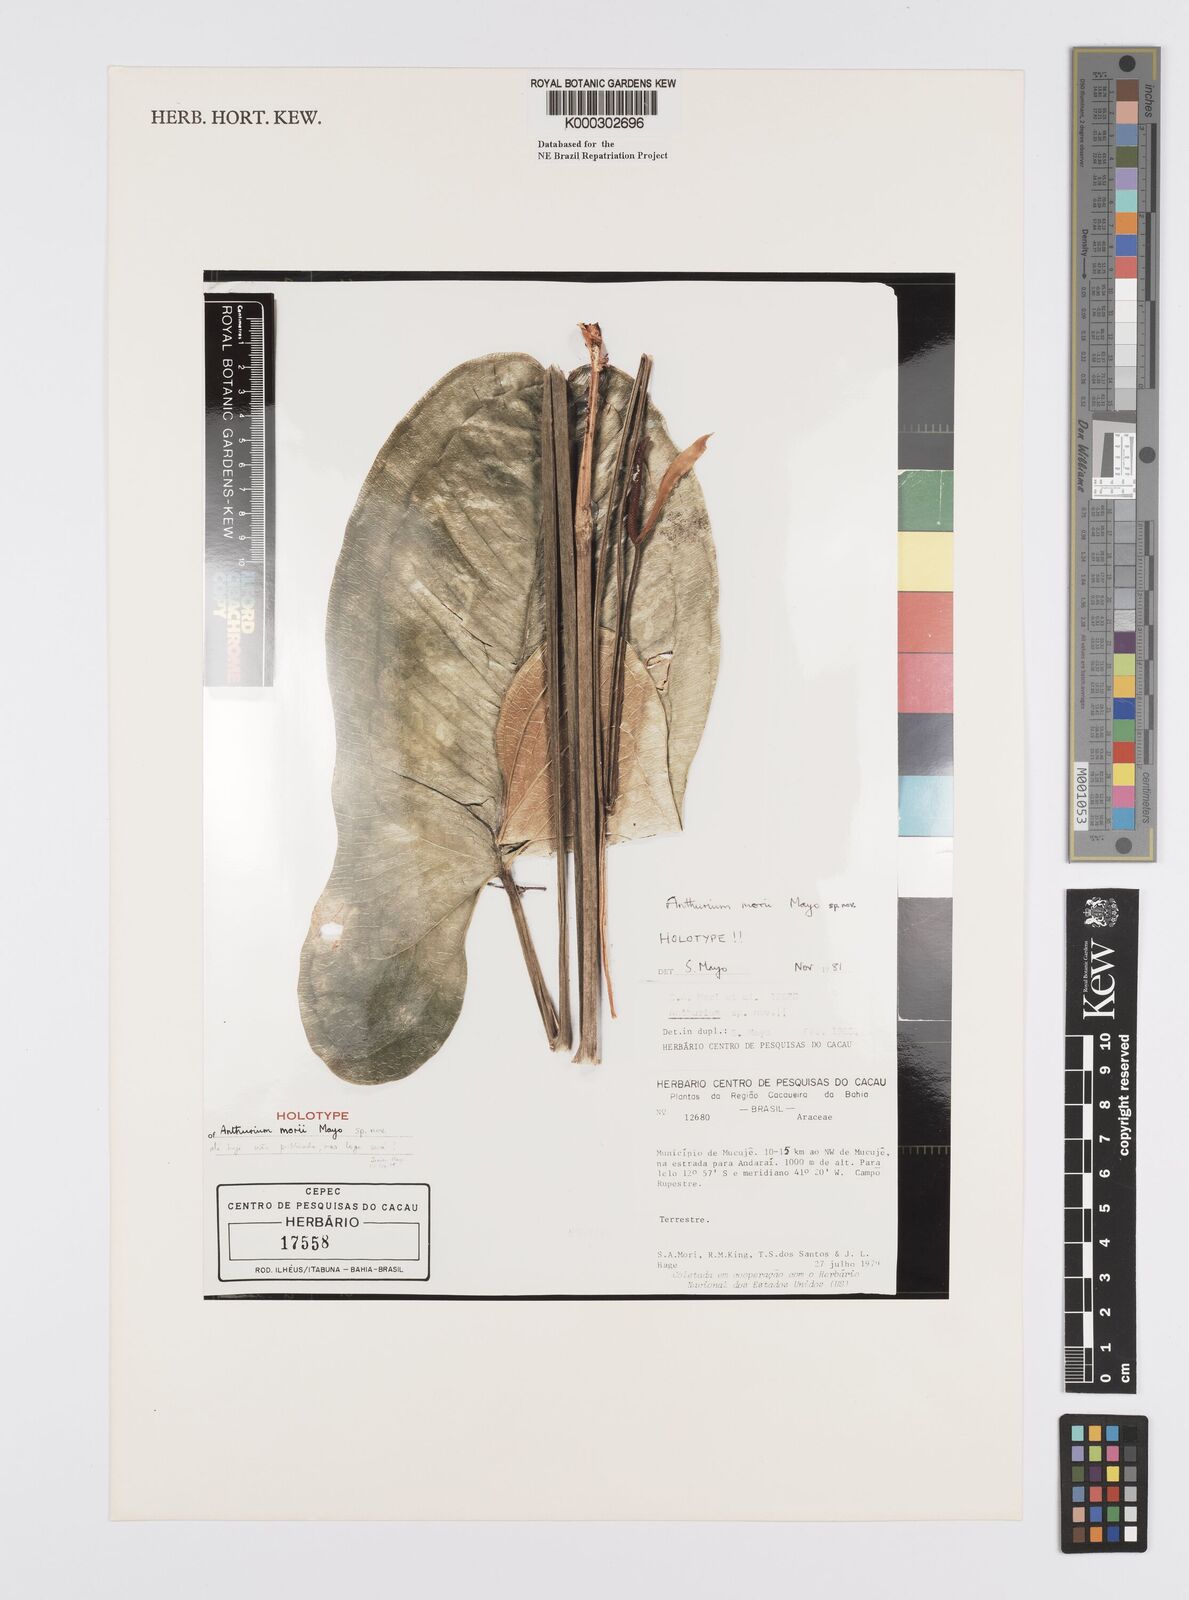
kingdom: Plantae
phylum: Tracheophyta
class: Liliopsida
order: Alismatales
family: Araceae
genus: Anthurium
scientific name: Anthurium morii
